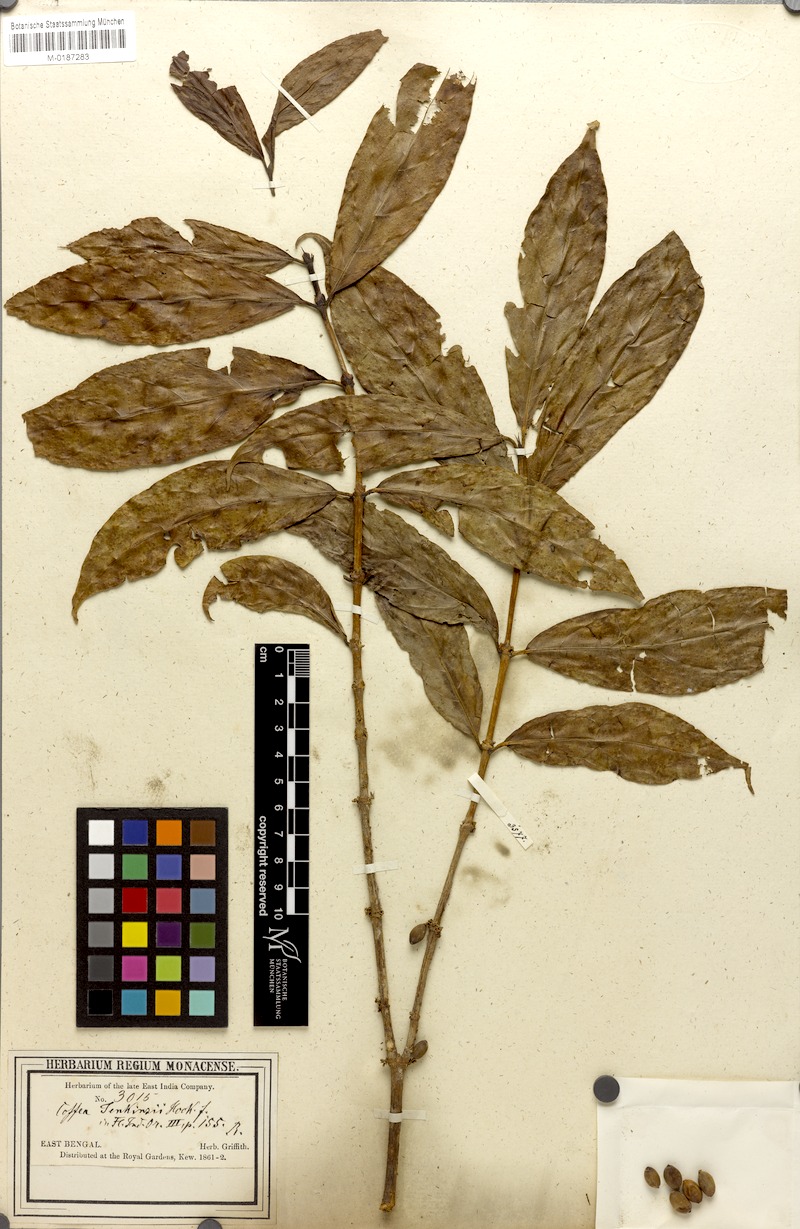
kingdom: Plantae
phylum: Tracheophyta
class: Magnoliopsida
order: Gentianales
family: Rubiaceae
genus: Nostolachma
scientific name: Nostolachma jenkinsii
